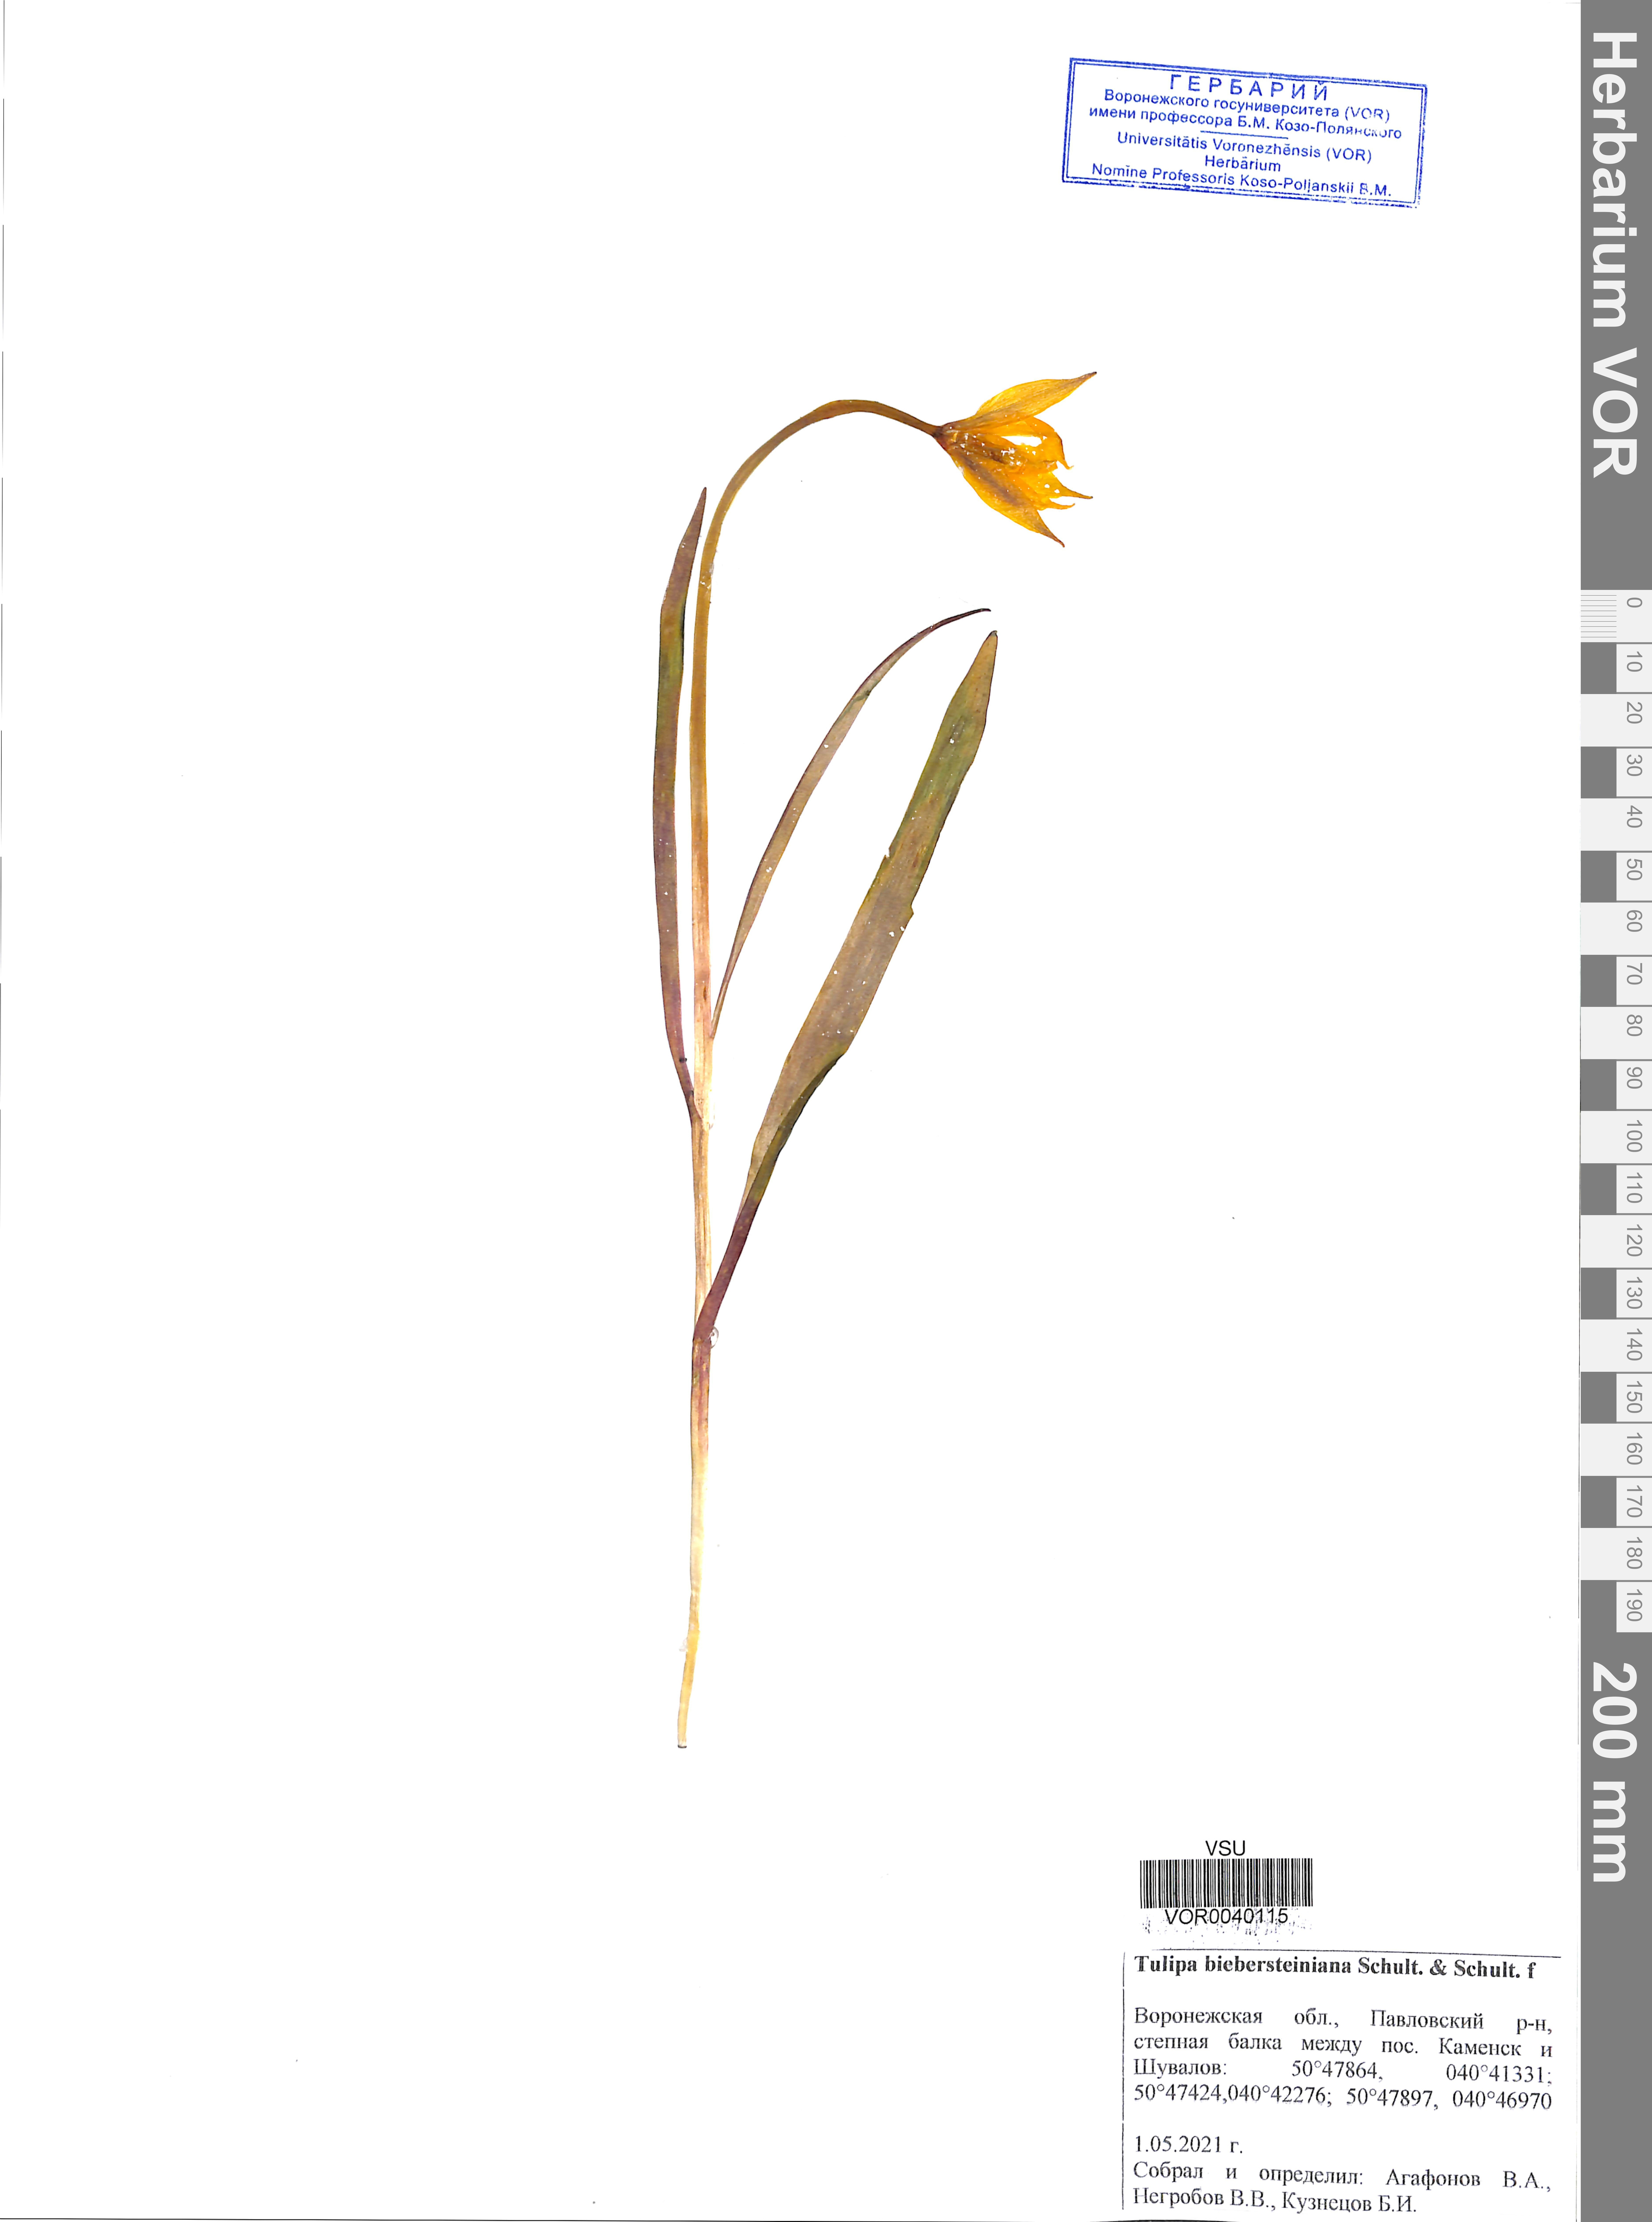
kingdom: Plantae
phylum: Tracheophyta
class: Liliopsida
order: Liliales
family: Liliaceae
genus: Tulipa
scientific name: Tulipa sylvestris
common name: Wild tulip
